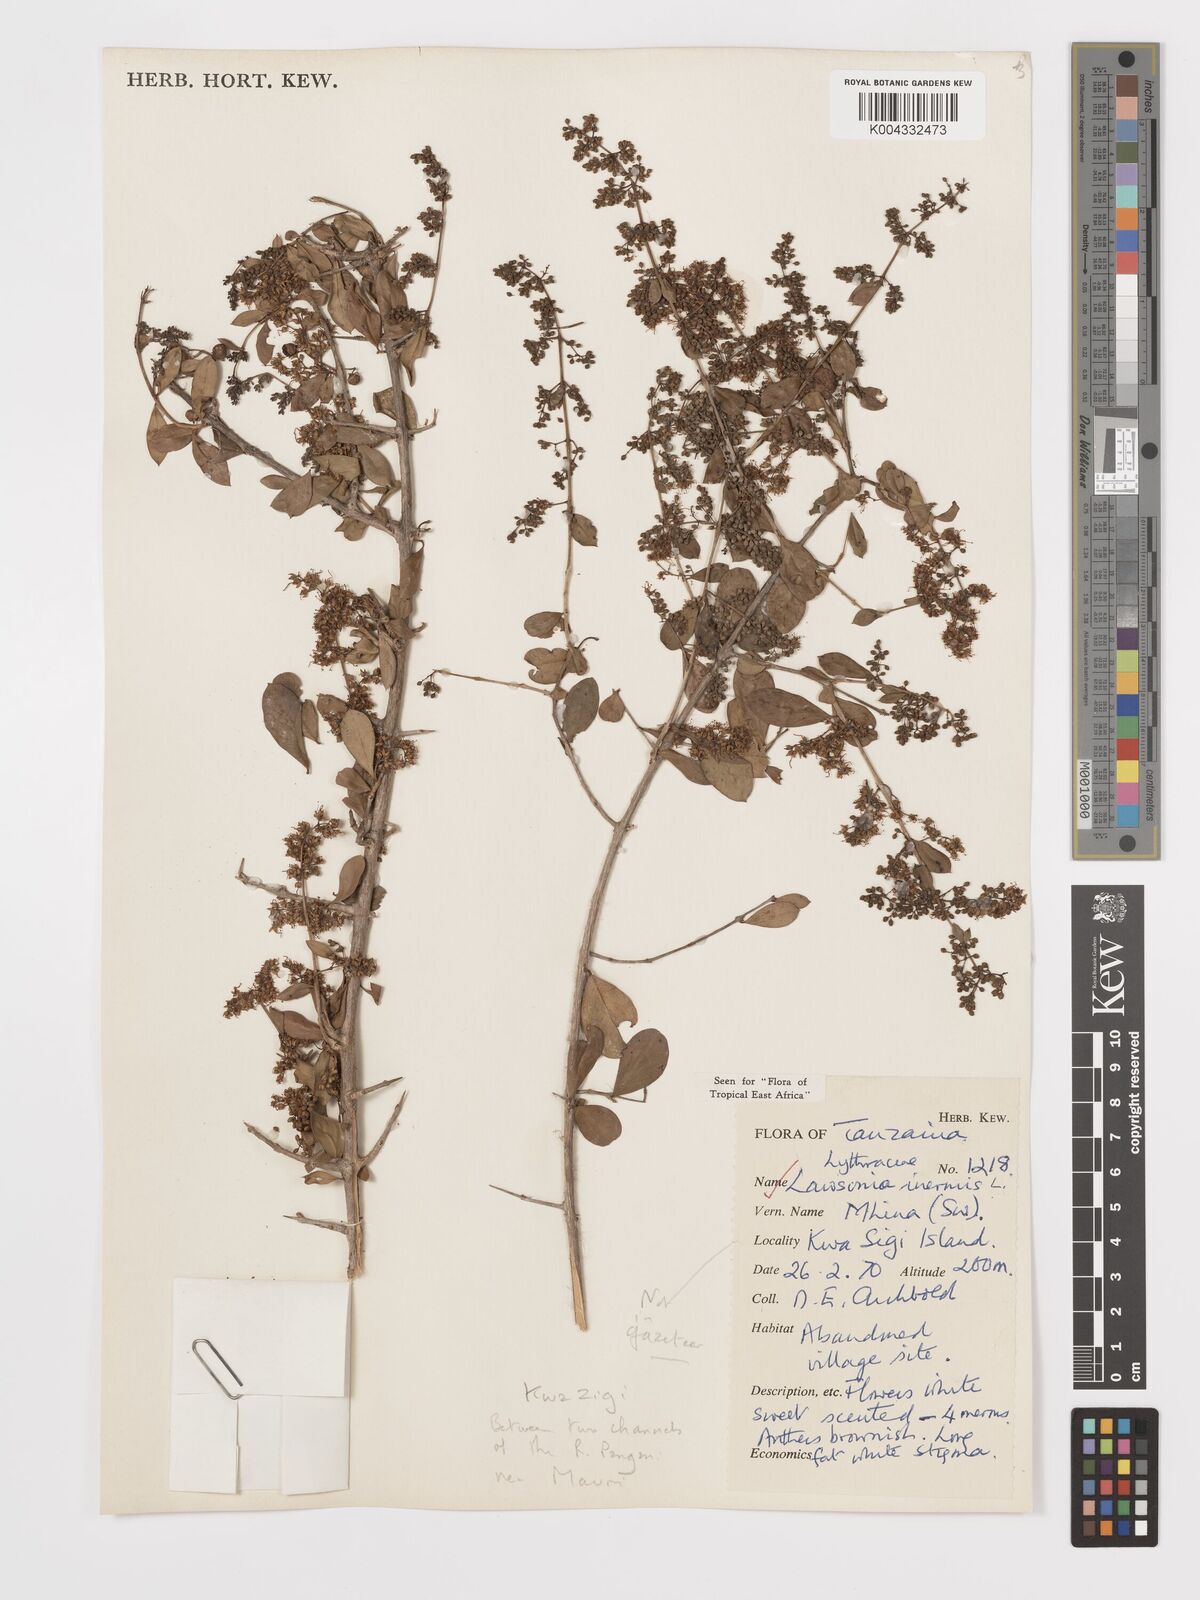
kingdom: Plantae
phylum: Tracheophyta
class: Magnoliopsida
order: Myrtales
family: Lythraceae
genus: Lawsonia
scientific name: Lawsonia inermis
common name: Henna
